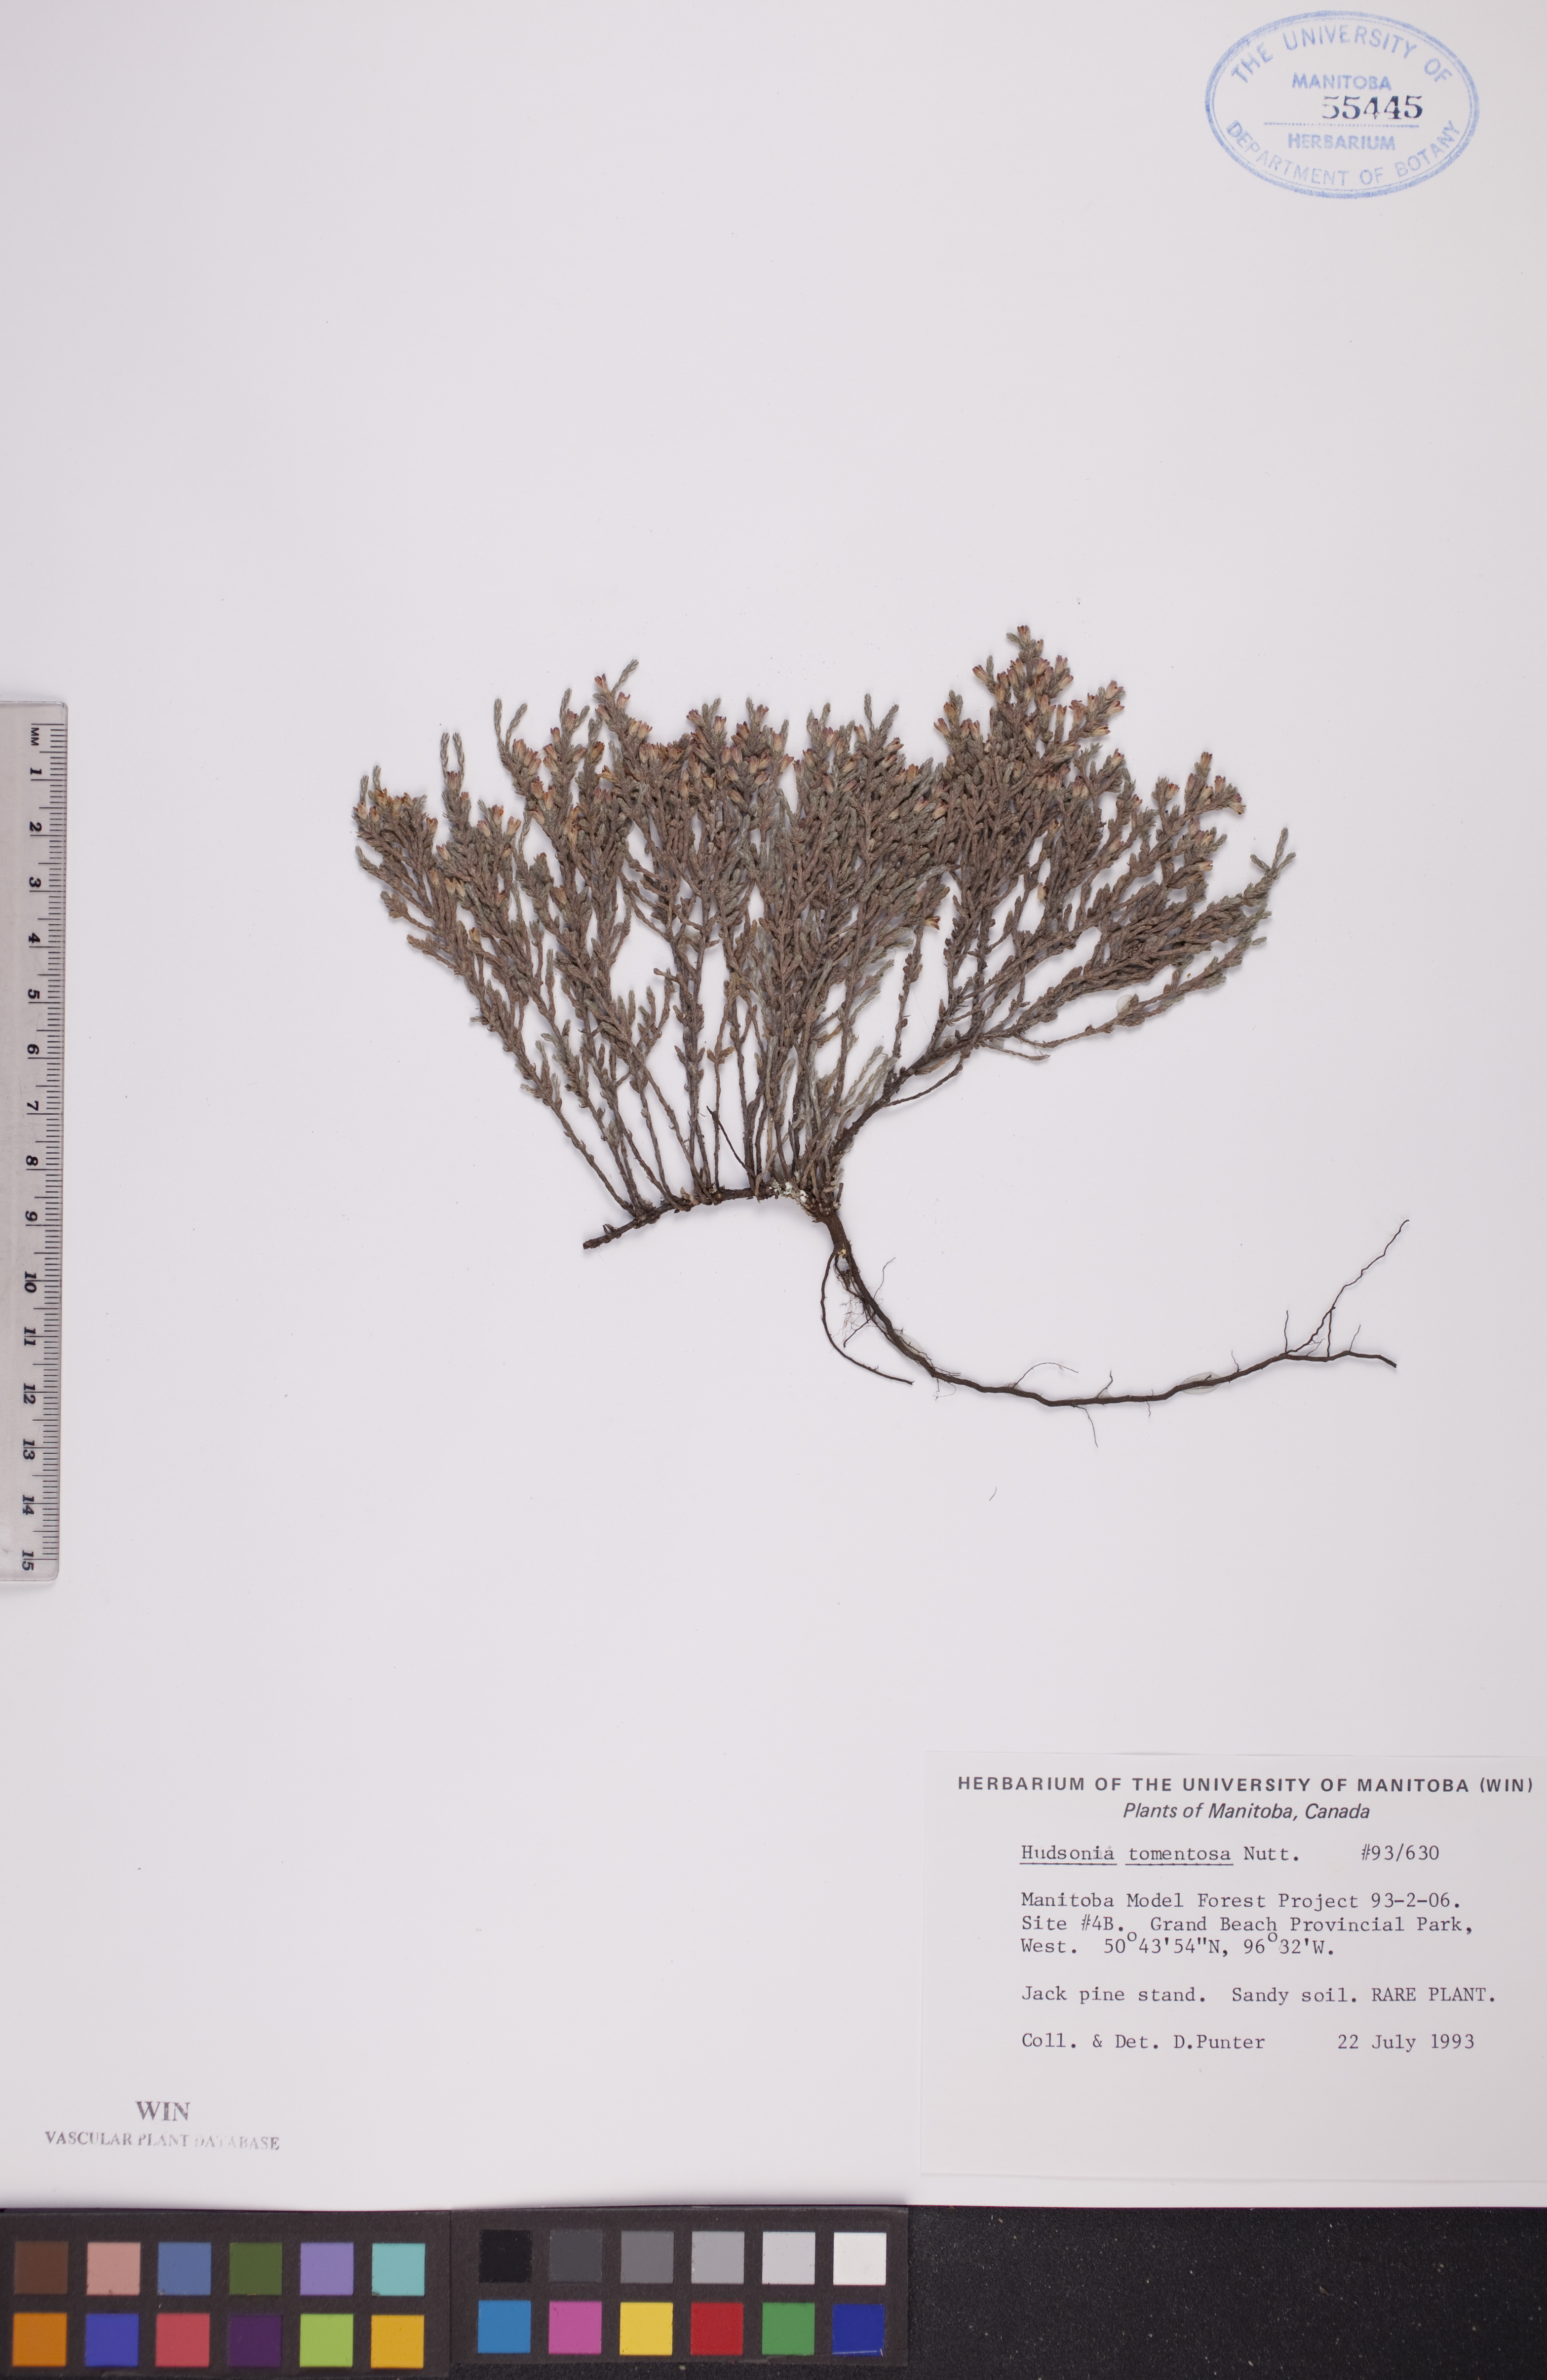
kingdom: Plantae
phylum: Tracheophyta
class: Magnoliopsida
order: Malvales
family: Cistaceae
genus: Hudsonia
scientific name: Hudsonia tomentosa
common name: Beach-heath
